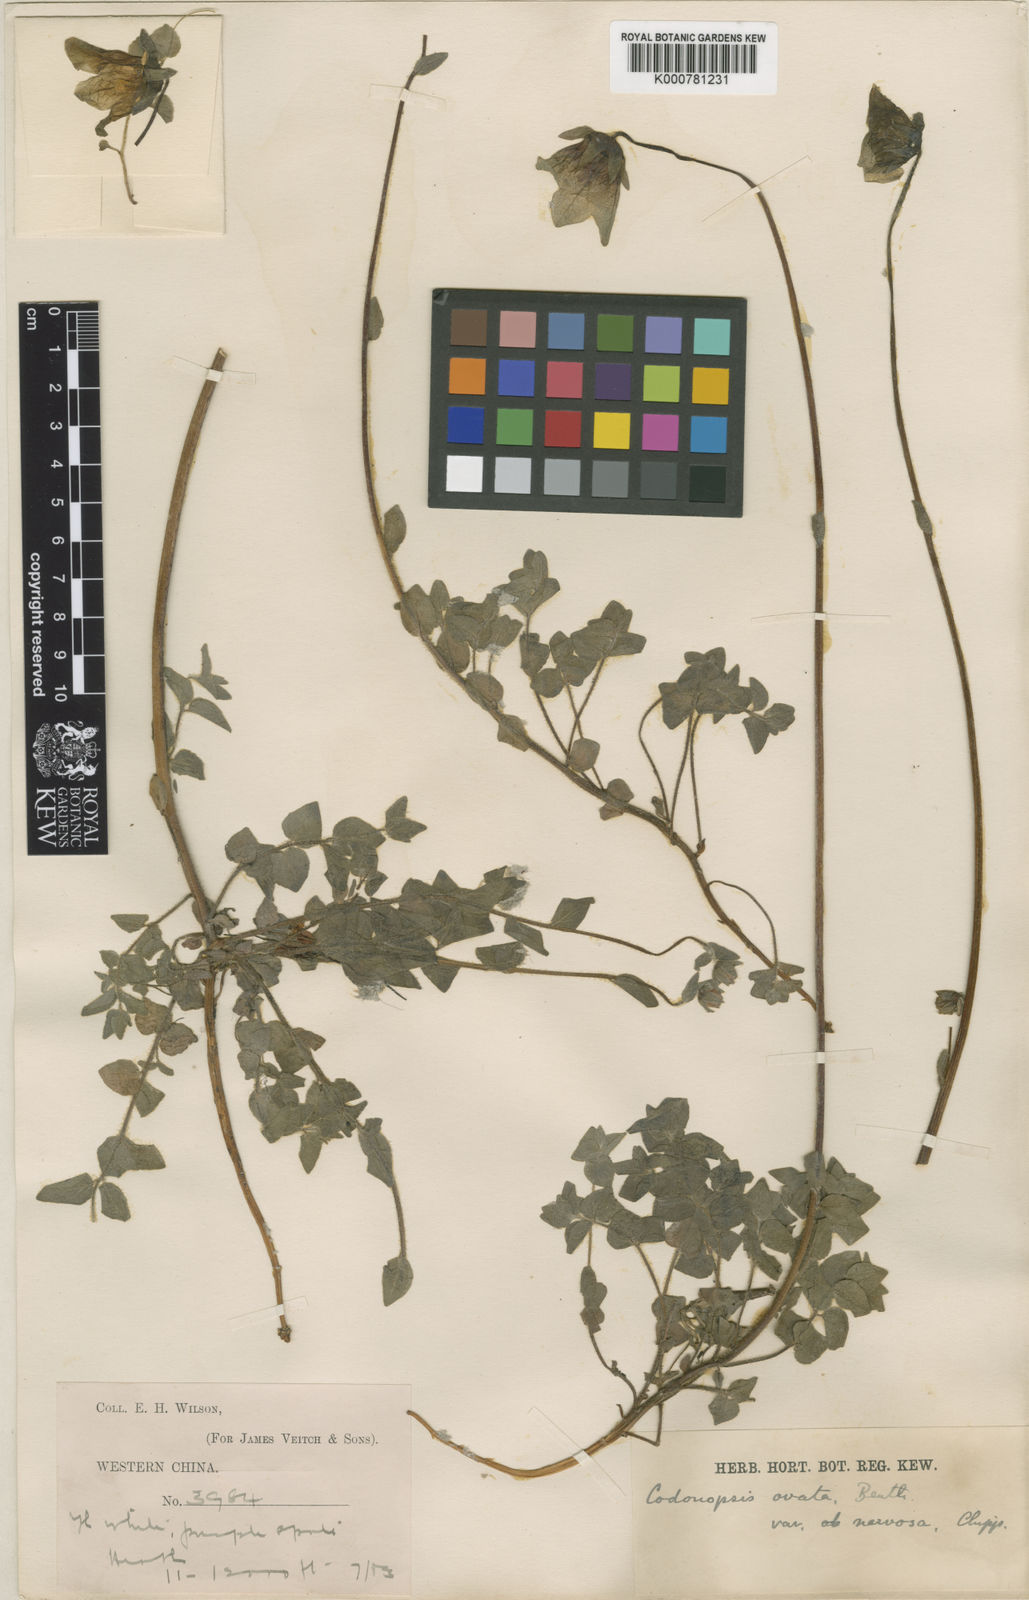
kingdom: Plantae
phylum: Tracheophyta
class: Magnoliopsida
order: Asterales
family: Campanulaceae
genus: Codonopsis
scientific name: Codonopsis foetens
